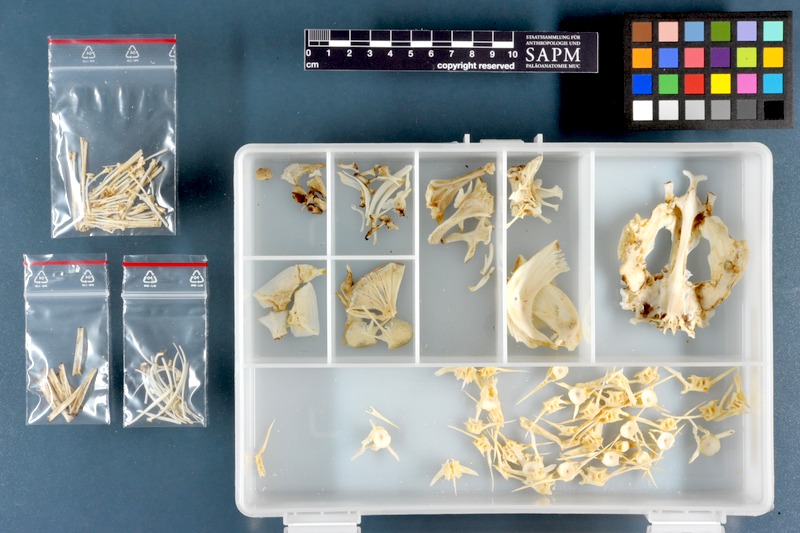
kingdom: Animalia
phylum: Chordata
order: Siluriformes
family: Malapteruridae
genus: Malapterurus
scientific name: Malapterurus electricus
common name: African electric catfish
